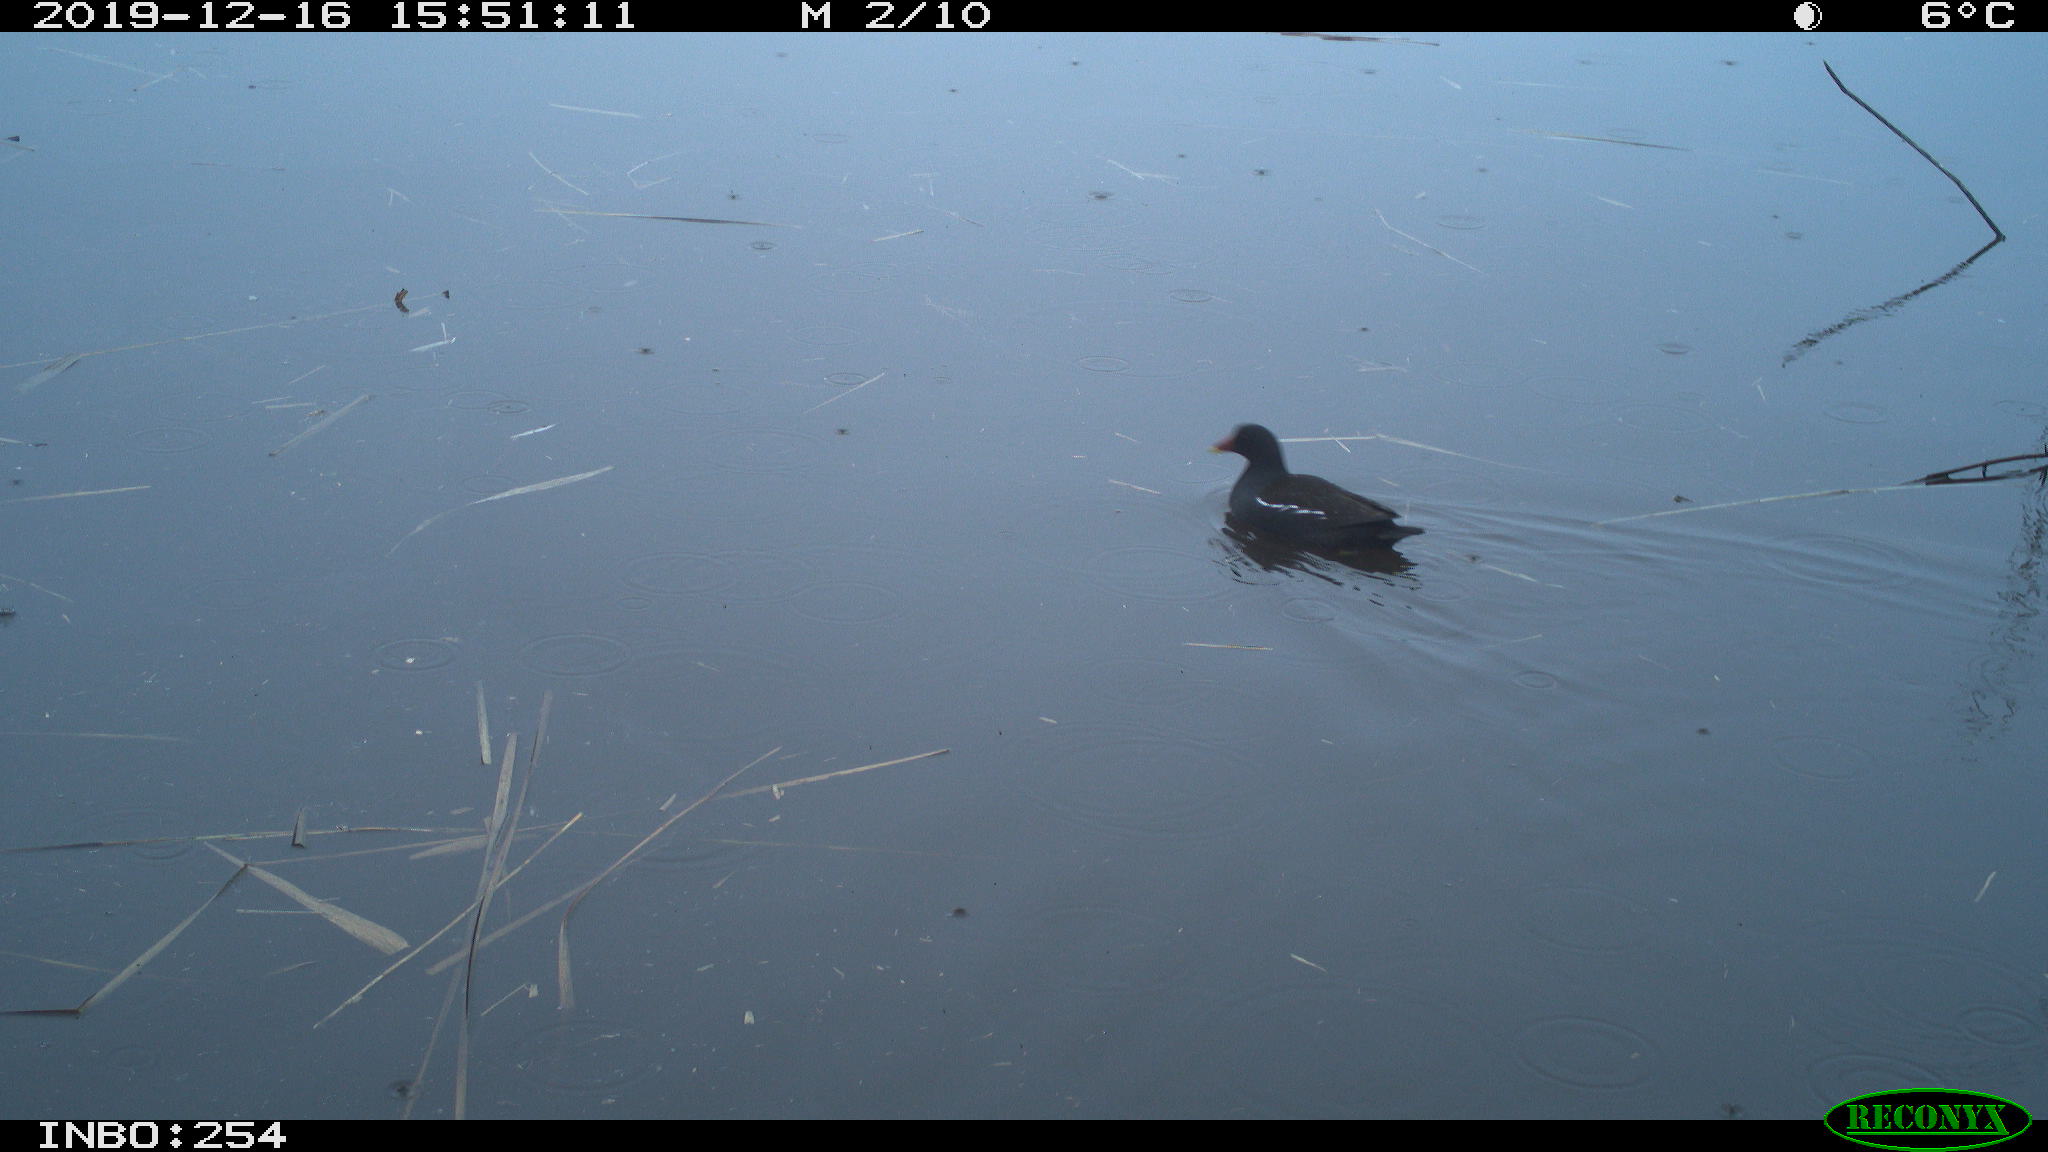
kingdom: Animalia
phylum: Chordata
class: Aves
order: Gruiformes
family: Rallidae
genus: Gallinula
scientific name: Gallinula chloropus
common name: Common moorhen
